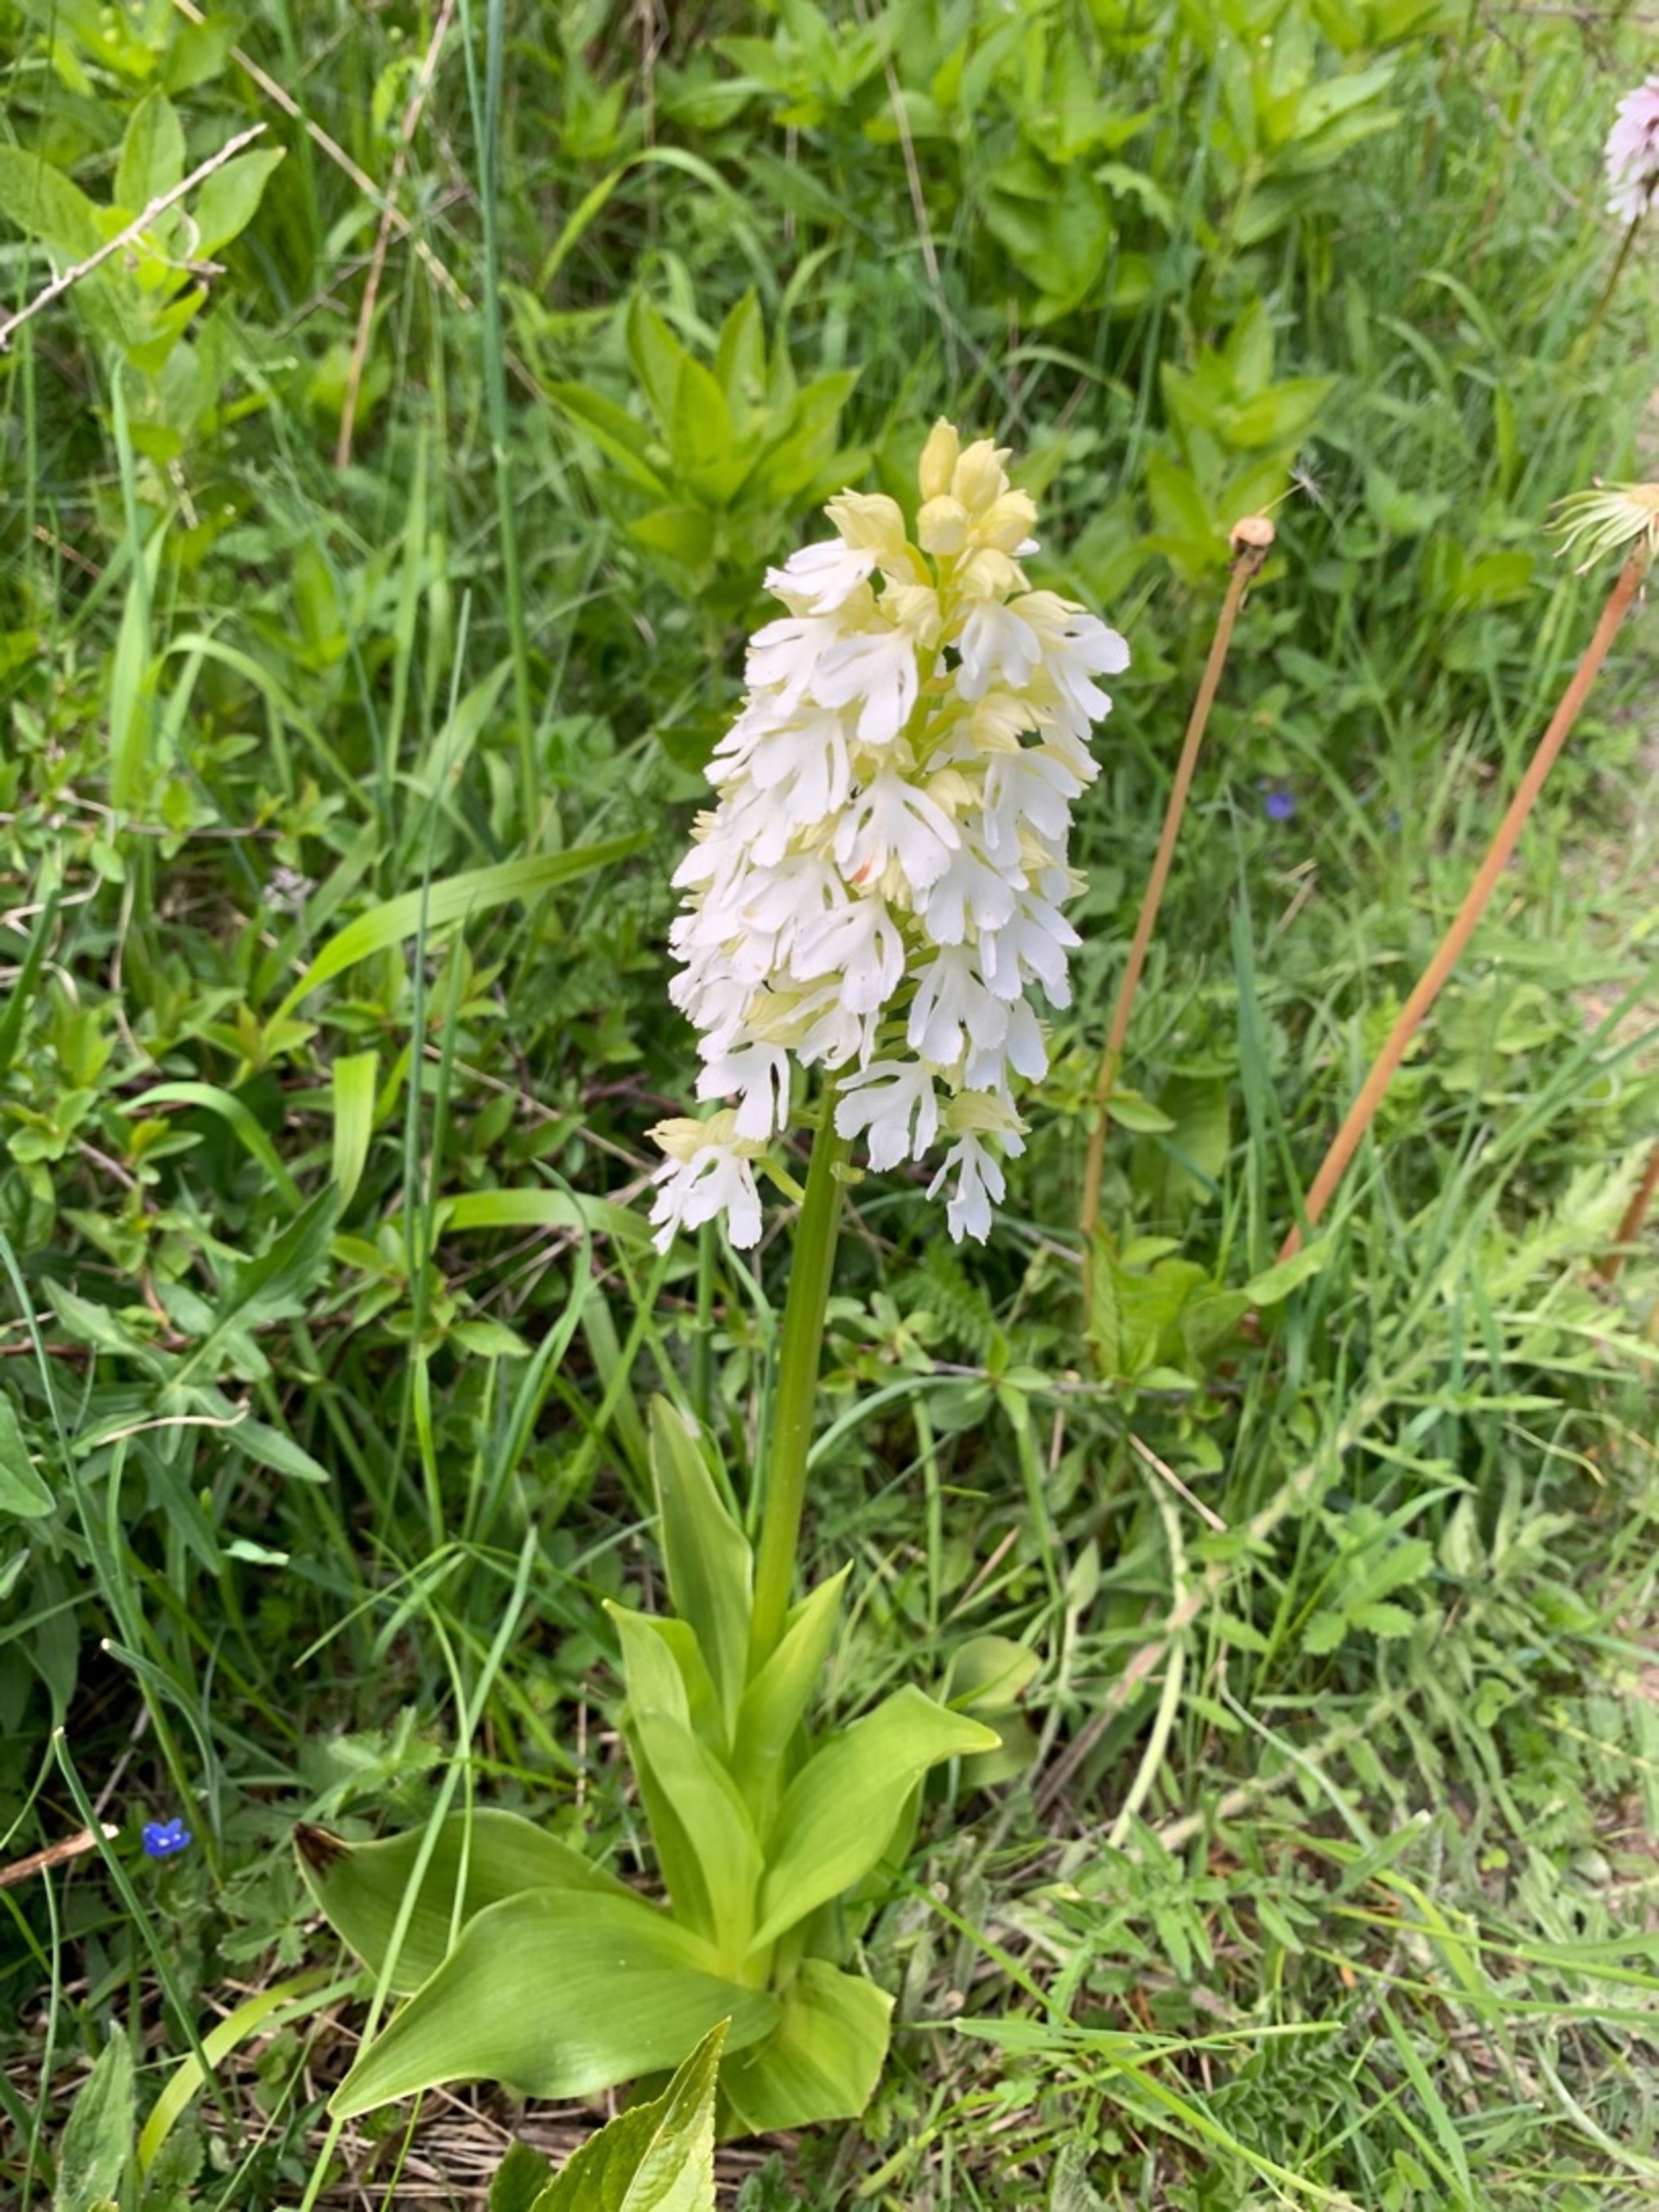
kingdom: Plantae
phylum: Tracheophyta
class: Liliopsida
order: Asparagales
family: Orchidaceae
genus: Orchis
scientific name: Orchis purpurea
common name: Stor gøgeurt
